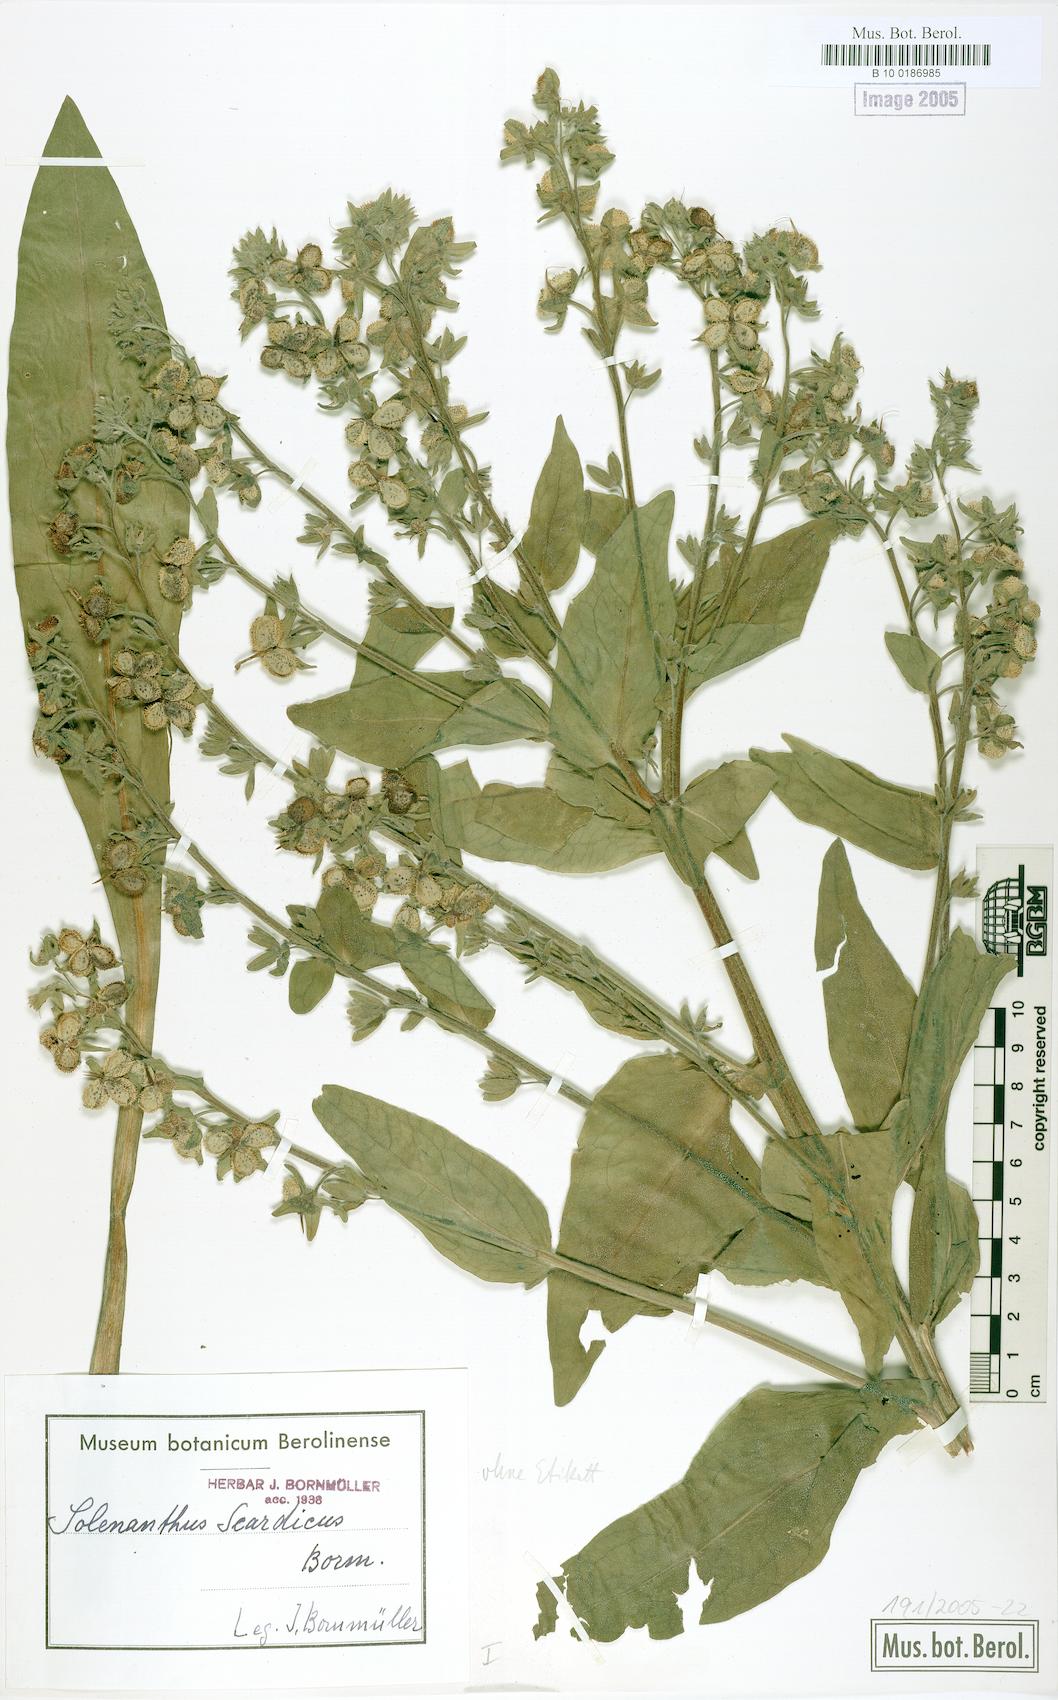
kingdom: Plantae
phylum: Tracheophyta
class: Magnoliopsida
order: Boraginales
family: Boraginaceae
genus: Solenanthus
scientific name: Solenanthus scardicus
